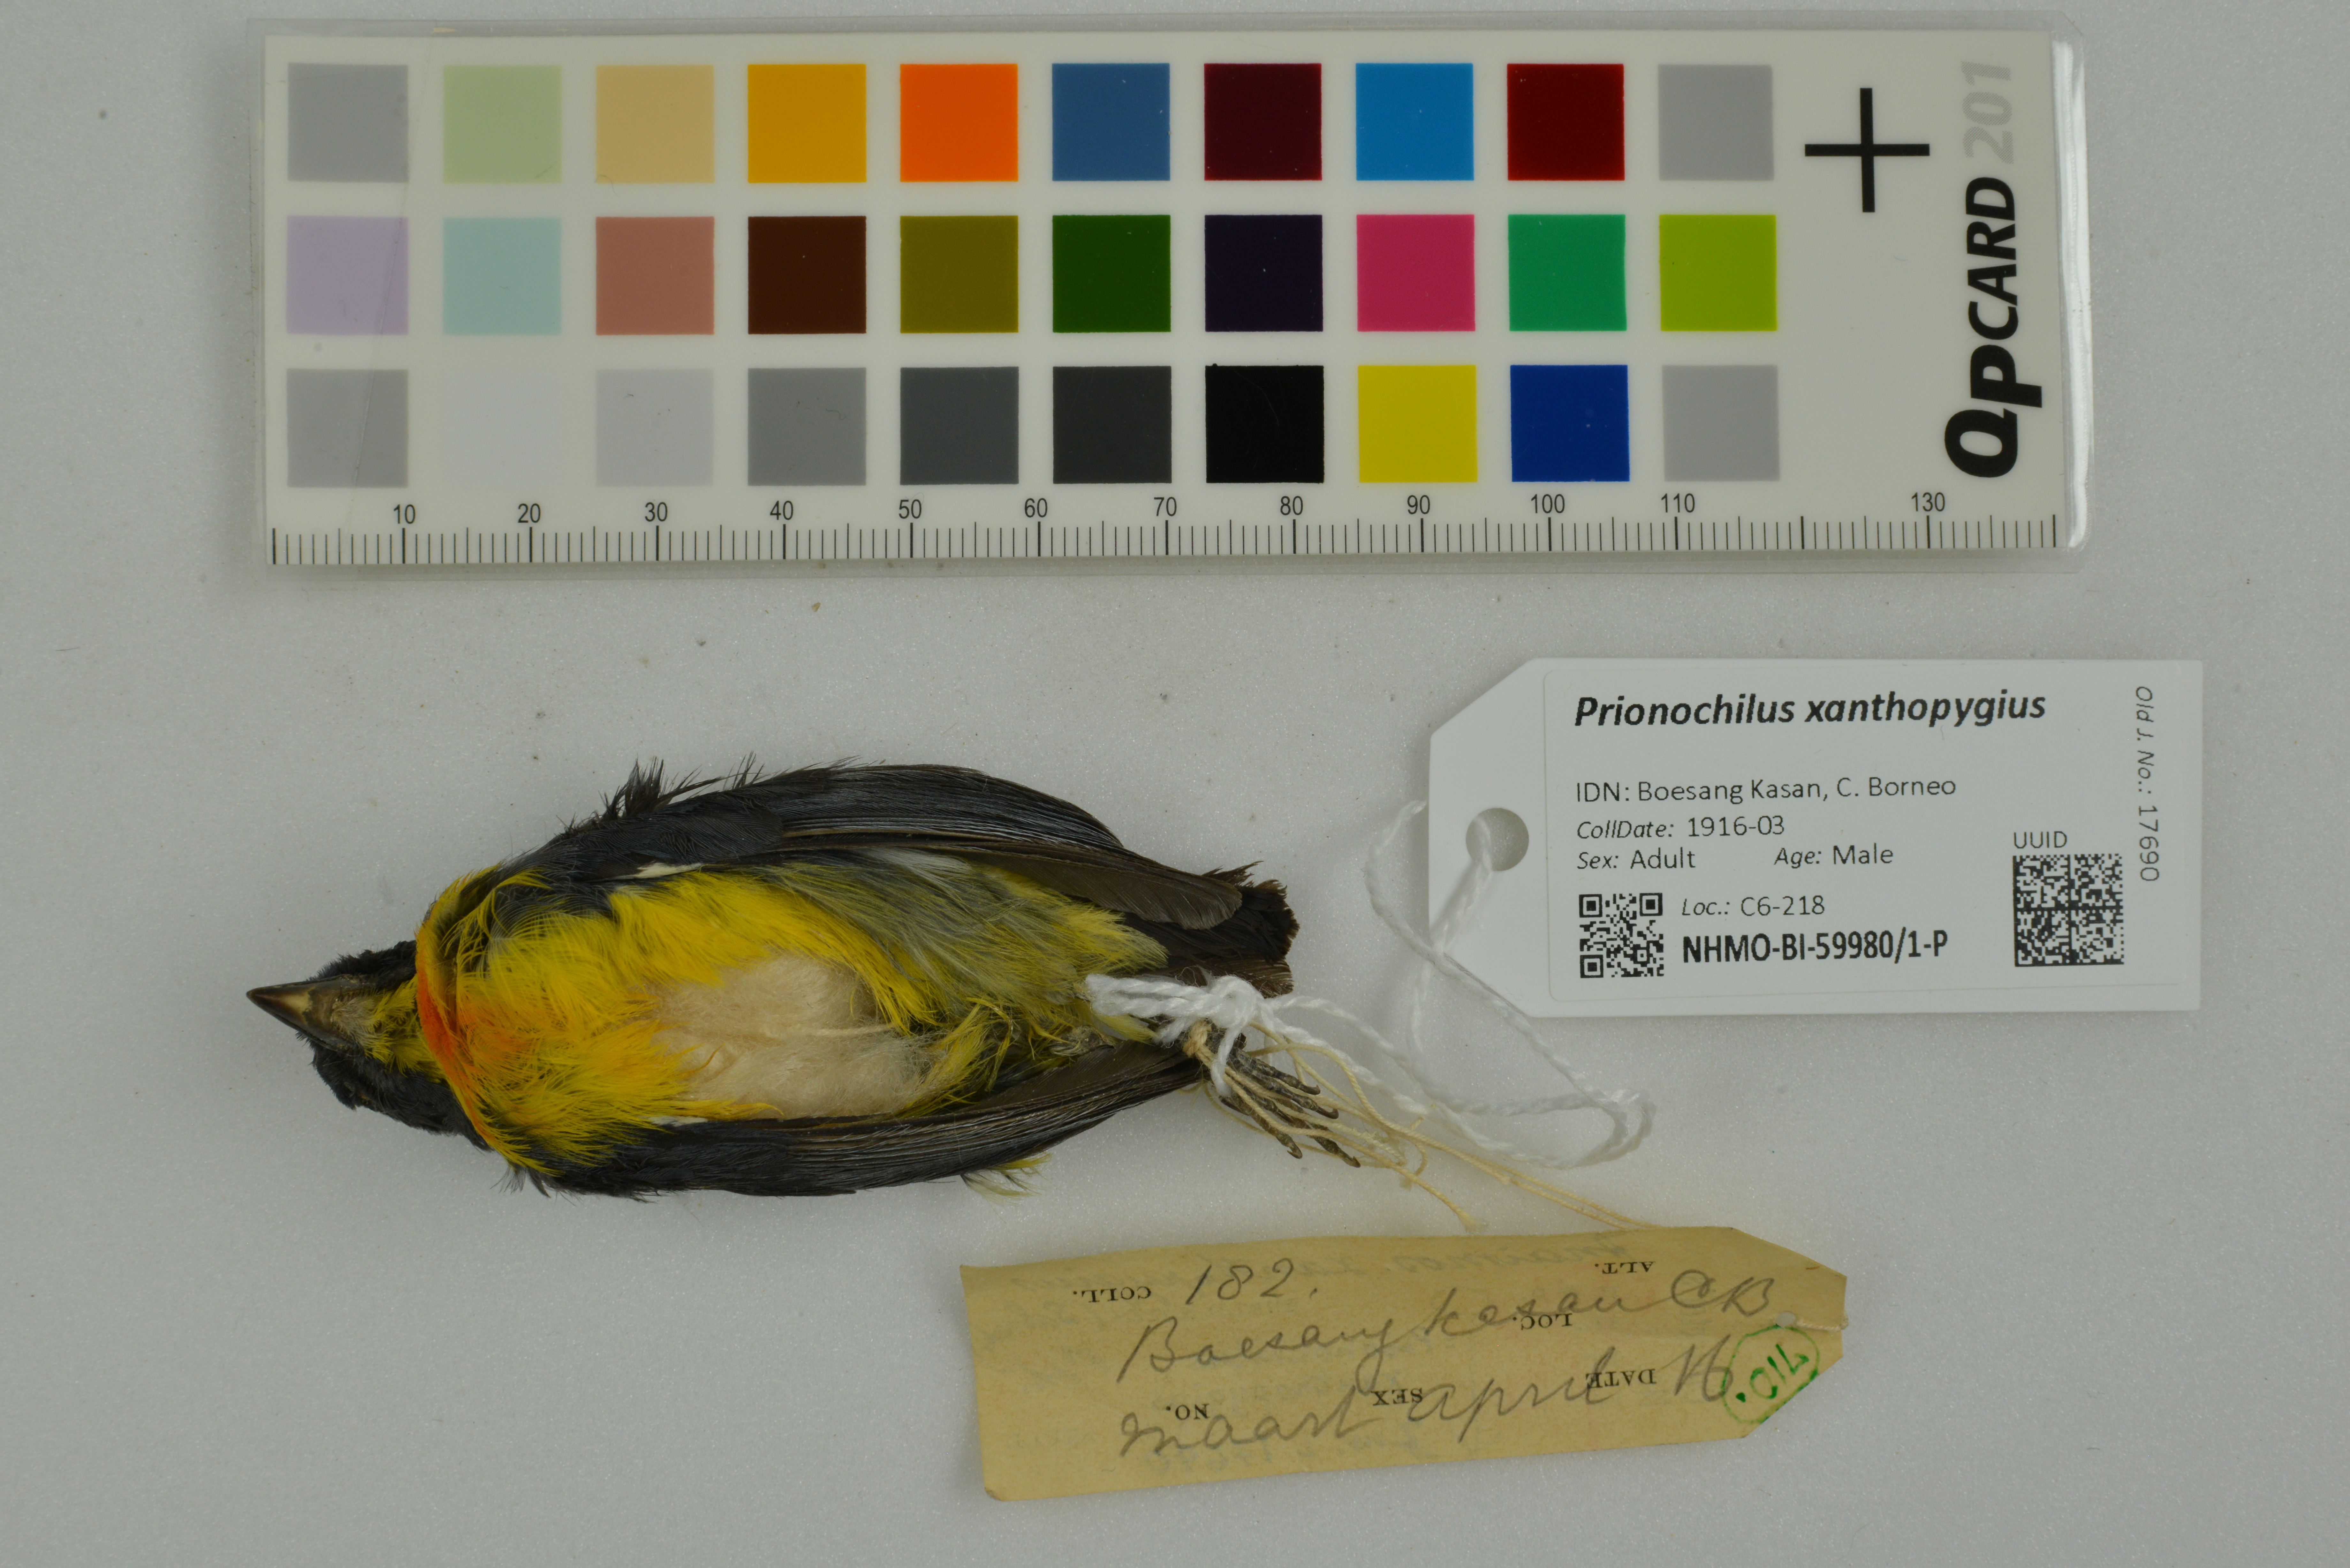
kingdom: Animalia
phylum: Chordata
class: Aves
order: Passeriformes
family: Dicaeidae
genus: Prionochilus
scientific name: Prionochilus xanthopygius
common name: Yellow-rumped flowerpecker
